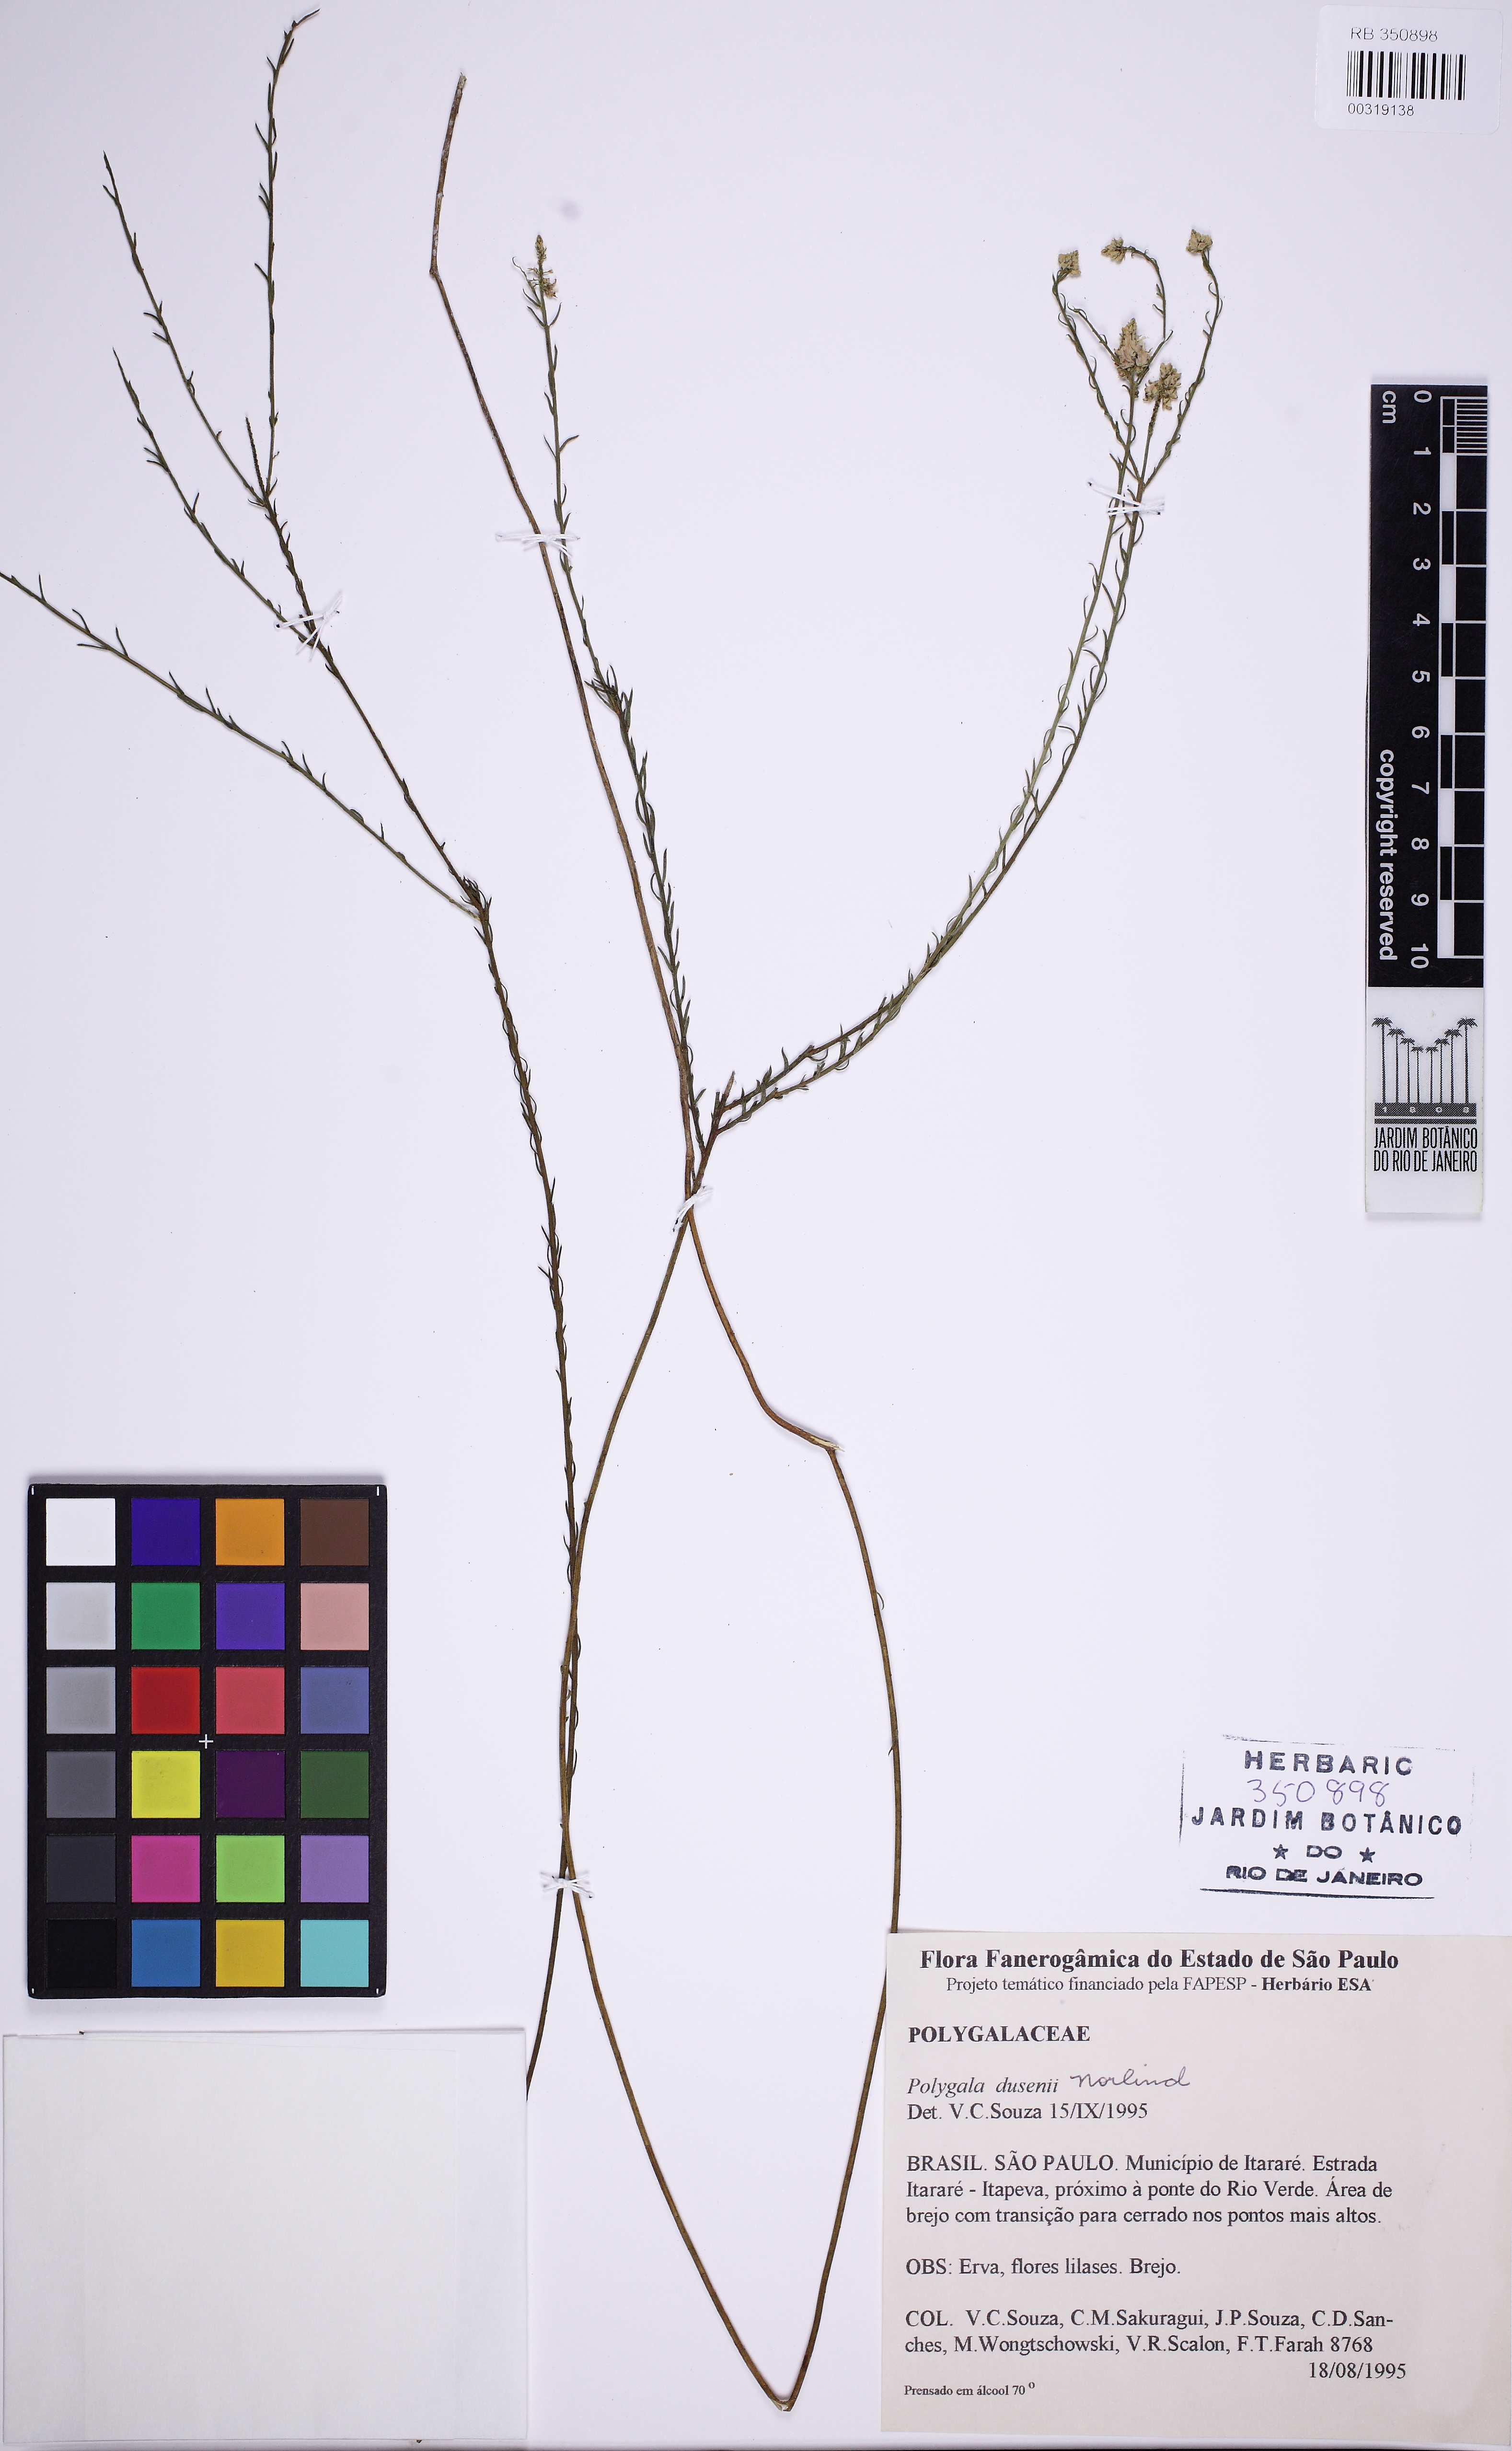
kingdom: Plantae
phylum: Tracheophyta
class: Magnoliopsida
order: Fabales
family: Polygalaceae
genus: Polygala
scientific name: Polygala lycopodioides
